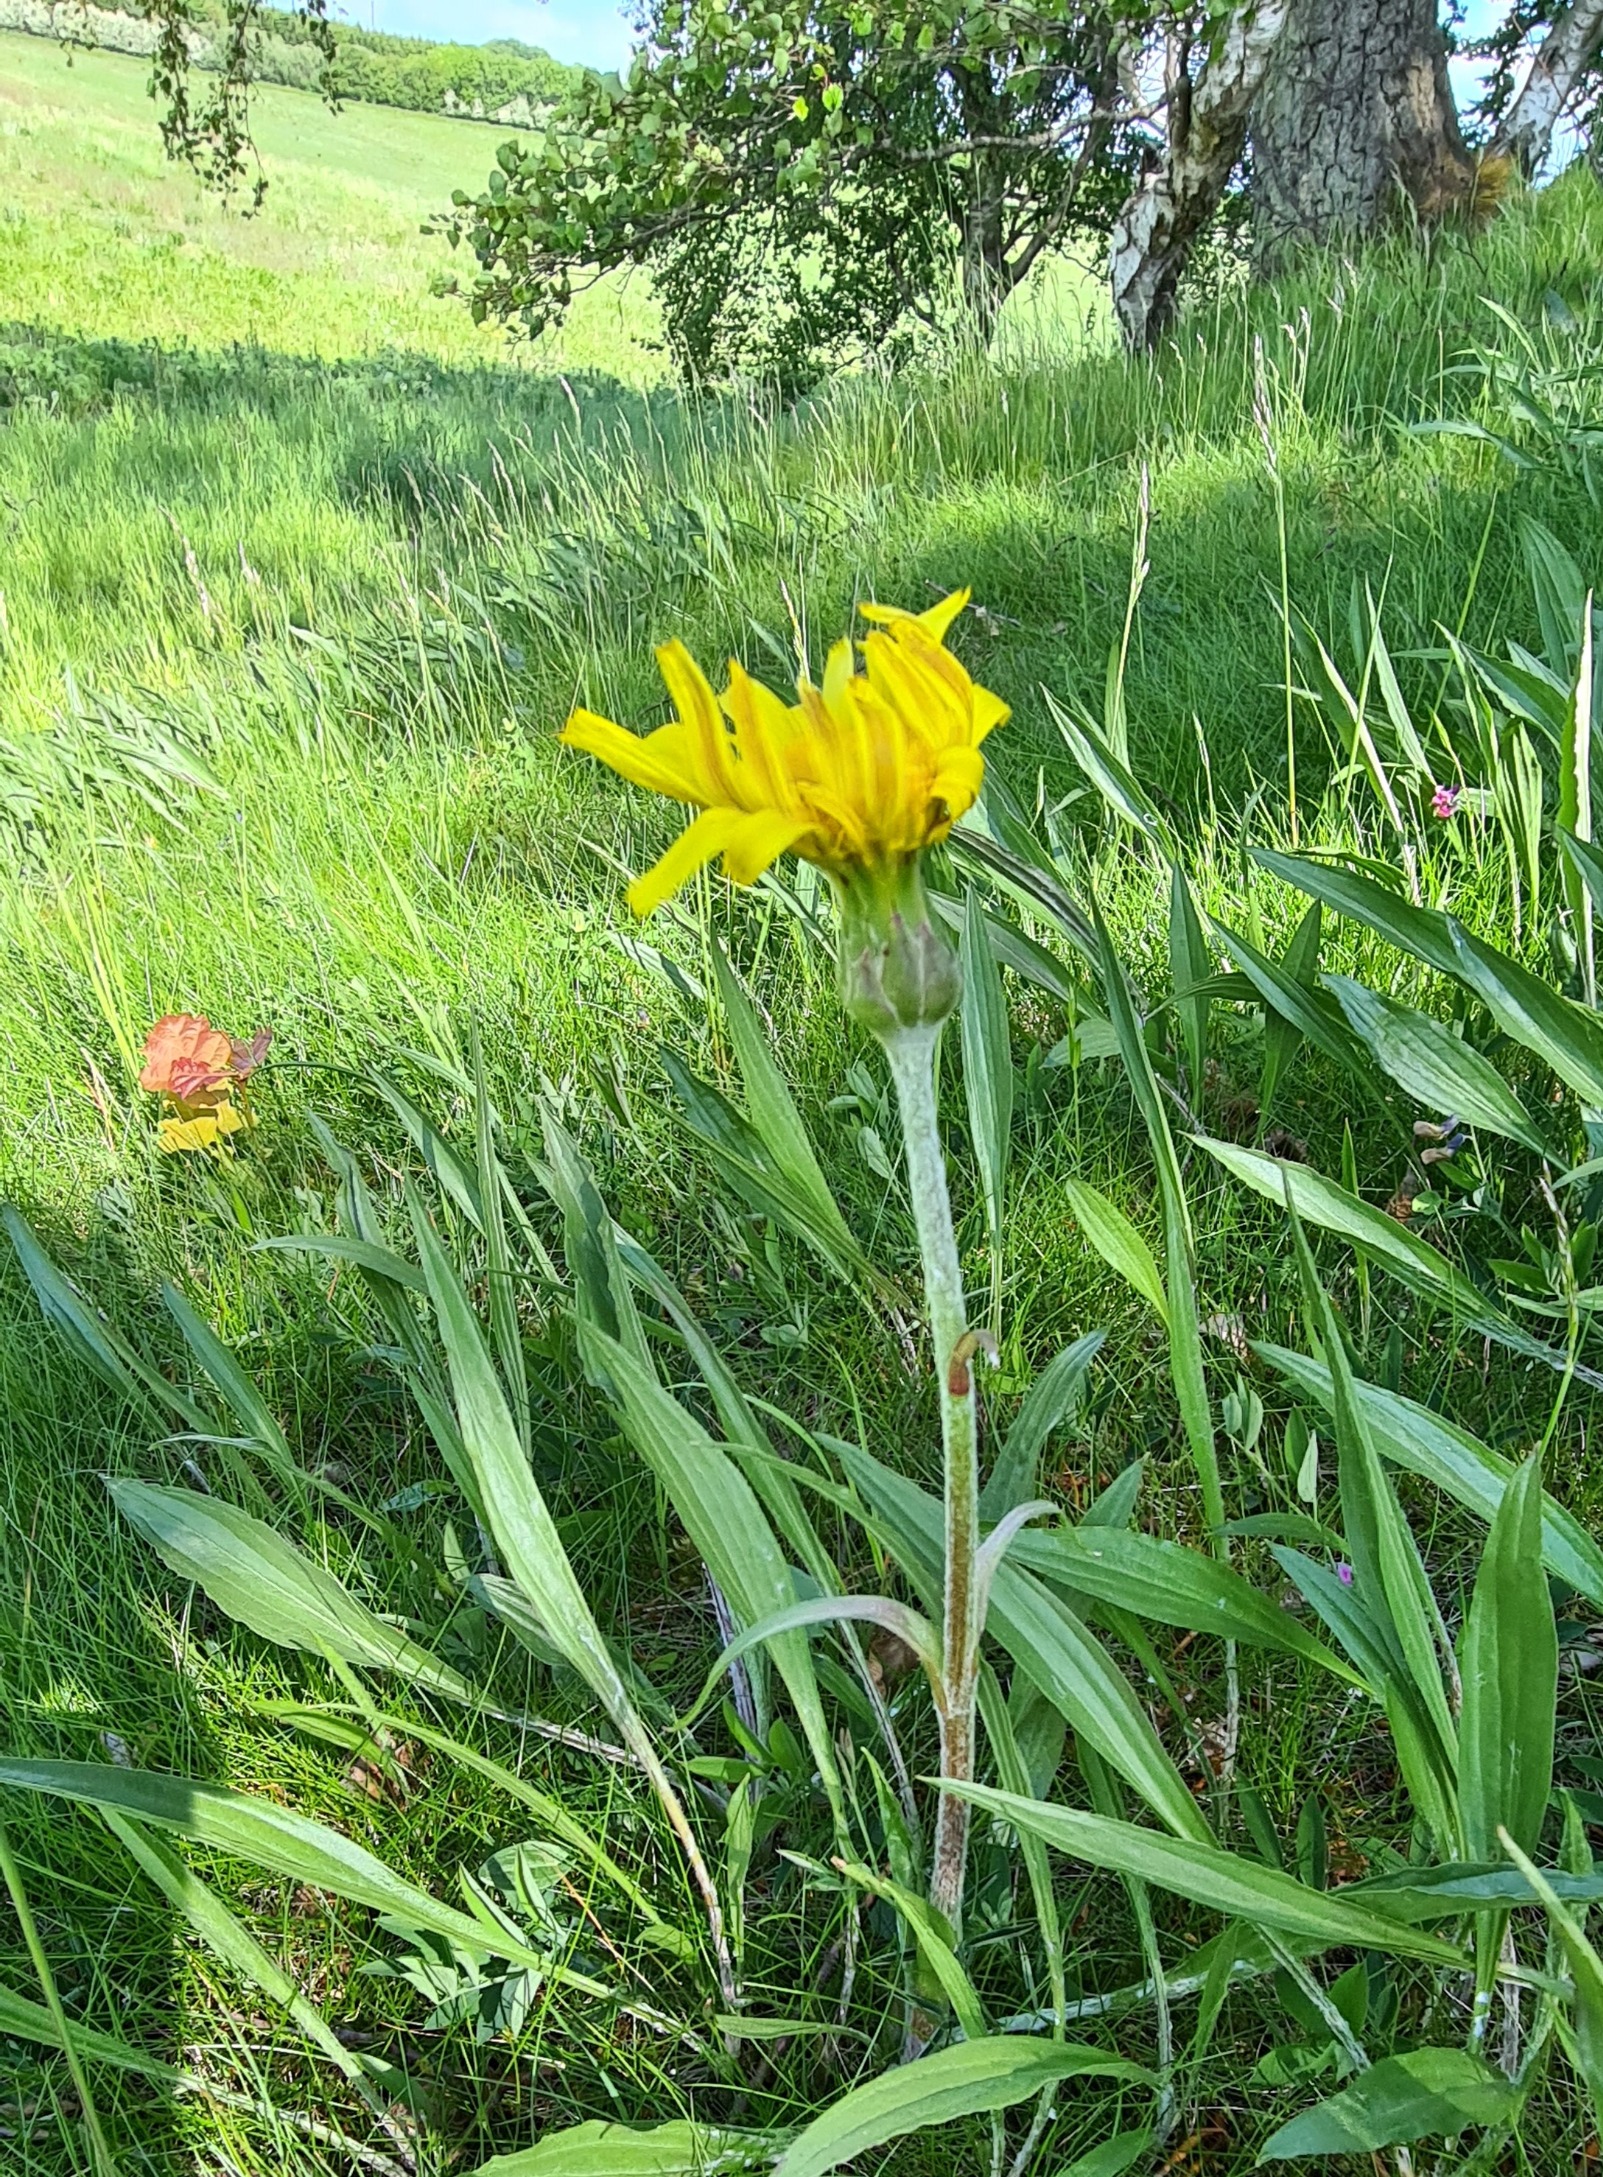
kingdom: Plantae
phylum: Tracheophyta
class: Magnoliopsida
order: Asterales
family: Asteraceae
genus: Scorzonera
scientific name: Scorzonera humilis
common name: Lav skorsoner
